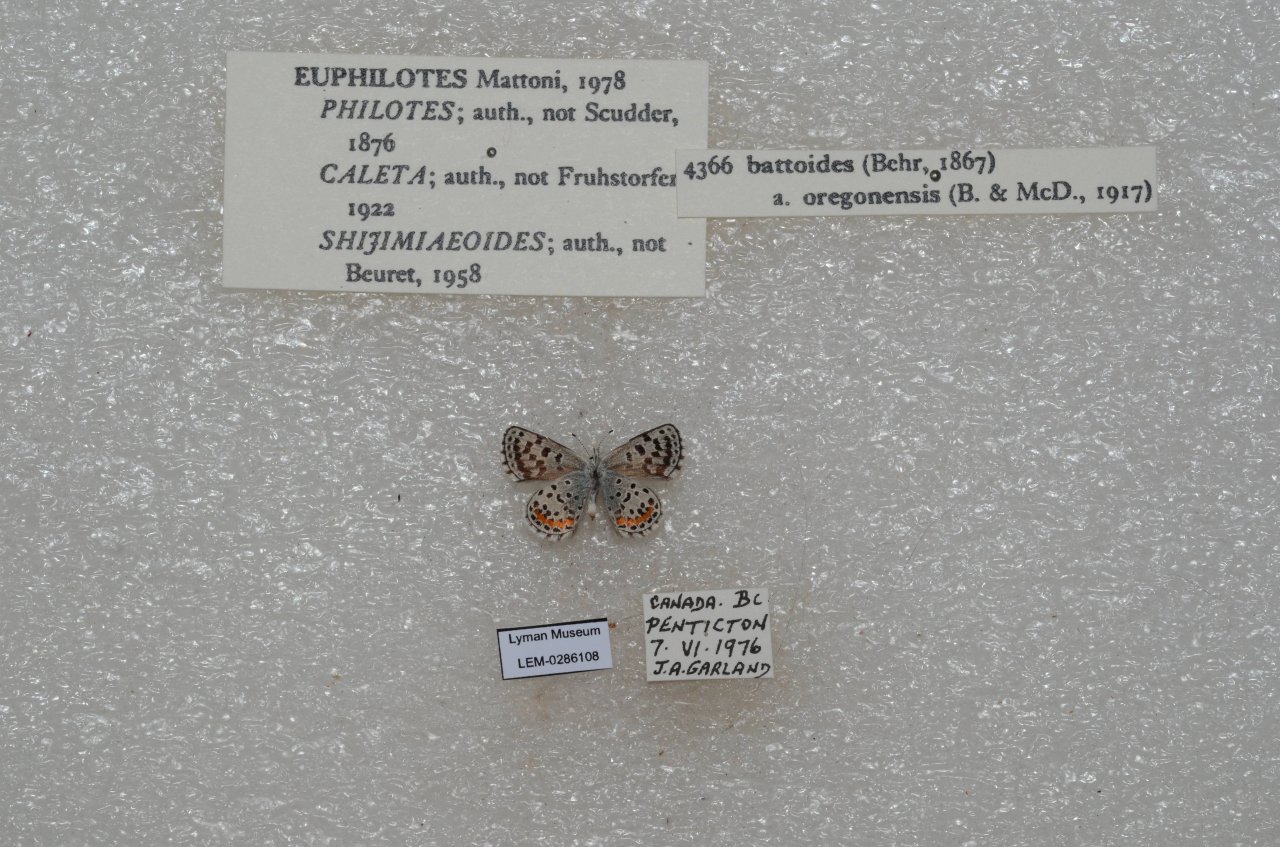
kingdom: Animalia
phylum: Arthropoda
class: Insecta
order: Lepidoptera
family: Lycaenidae
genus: Euphilotes
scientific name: Euphilotes battoides
